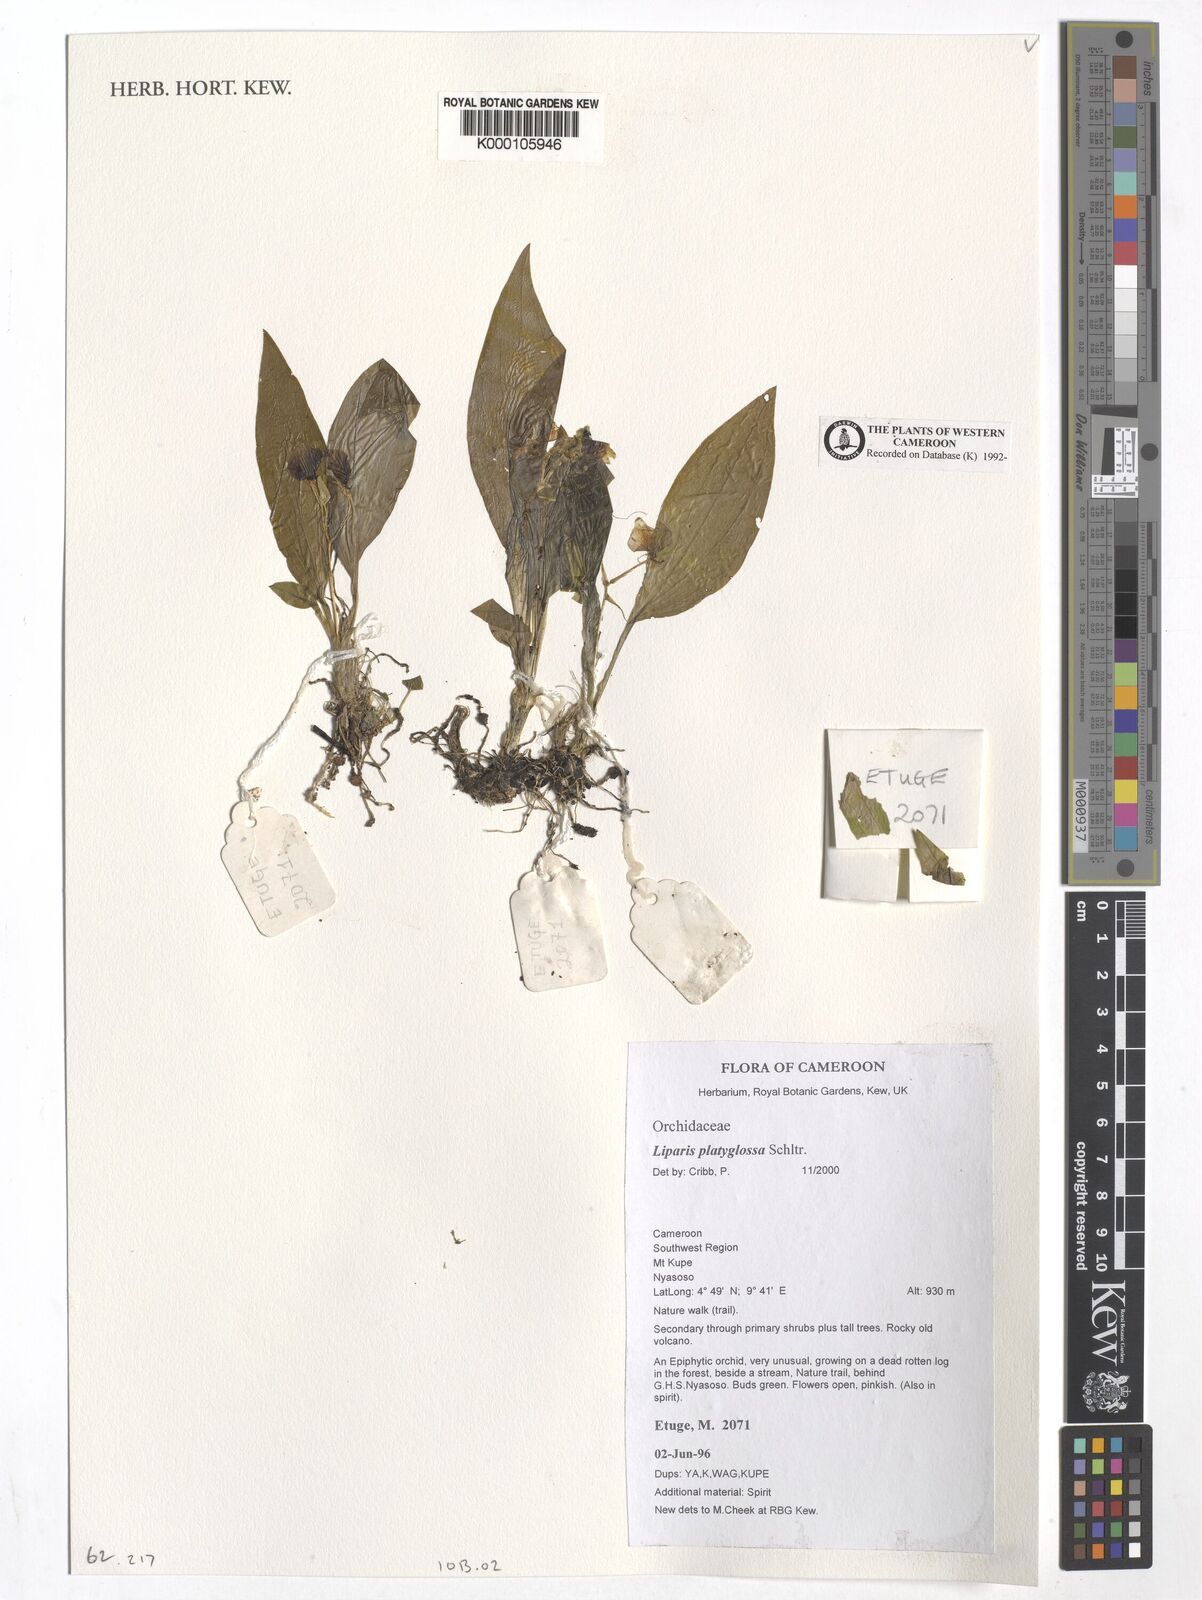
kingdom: Plantae
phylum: Tracheophyta
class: Liliopsida
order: Asparagales
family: Orchidaceae
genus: Liparis
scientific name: Liparis platyglossa
